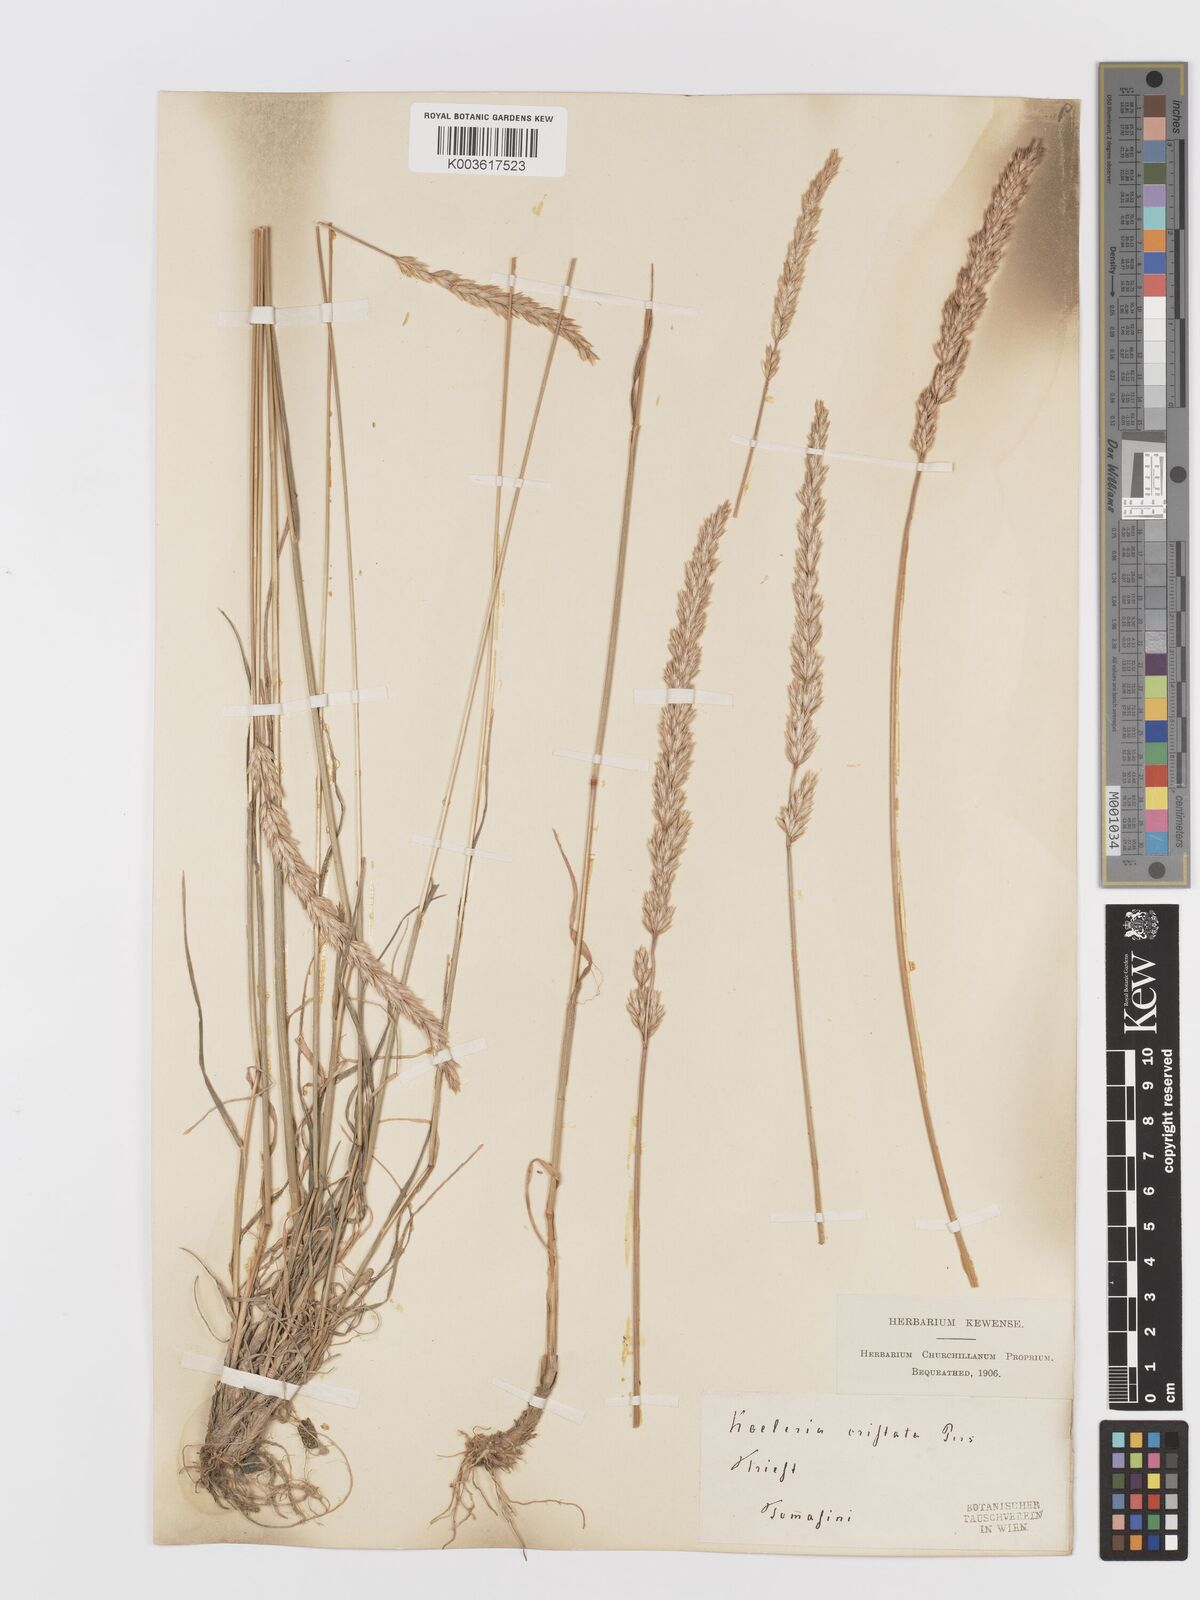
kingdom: Plantae
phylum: Tracheophyta
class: Liliopsida
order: Poales
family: Poaceae
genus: Koeleria
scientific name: Koeleria
